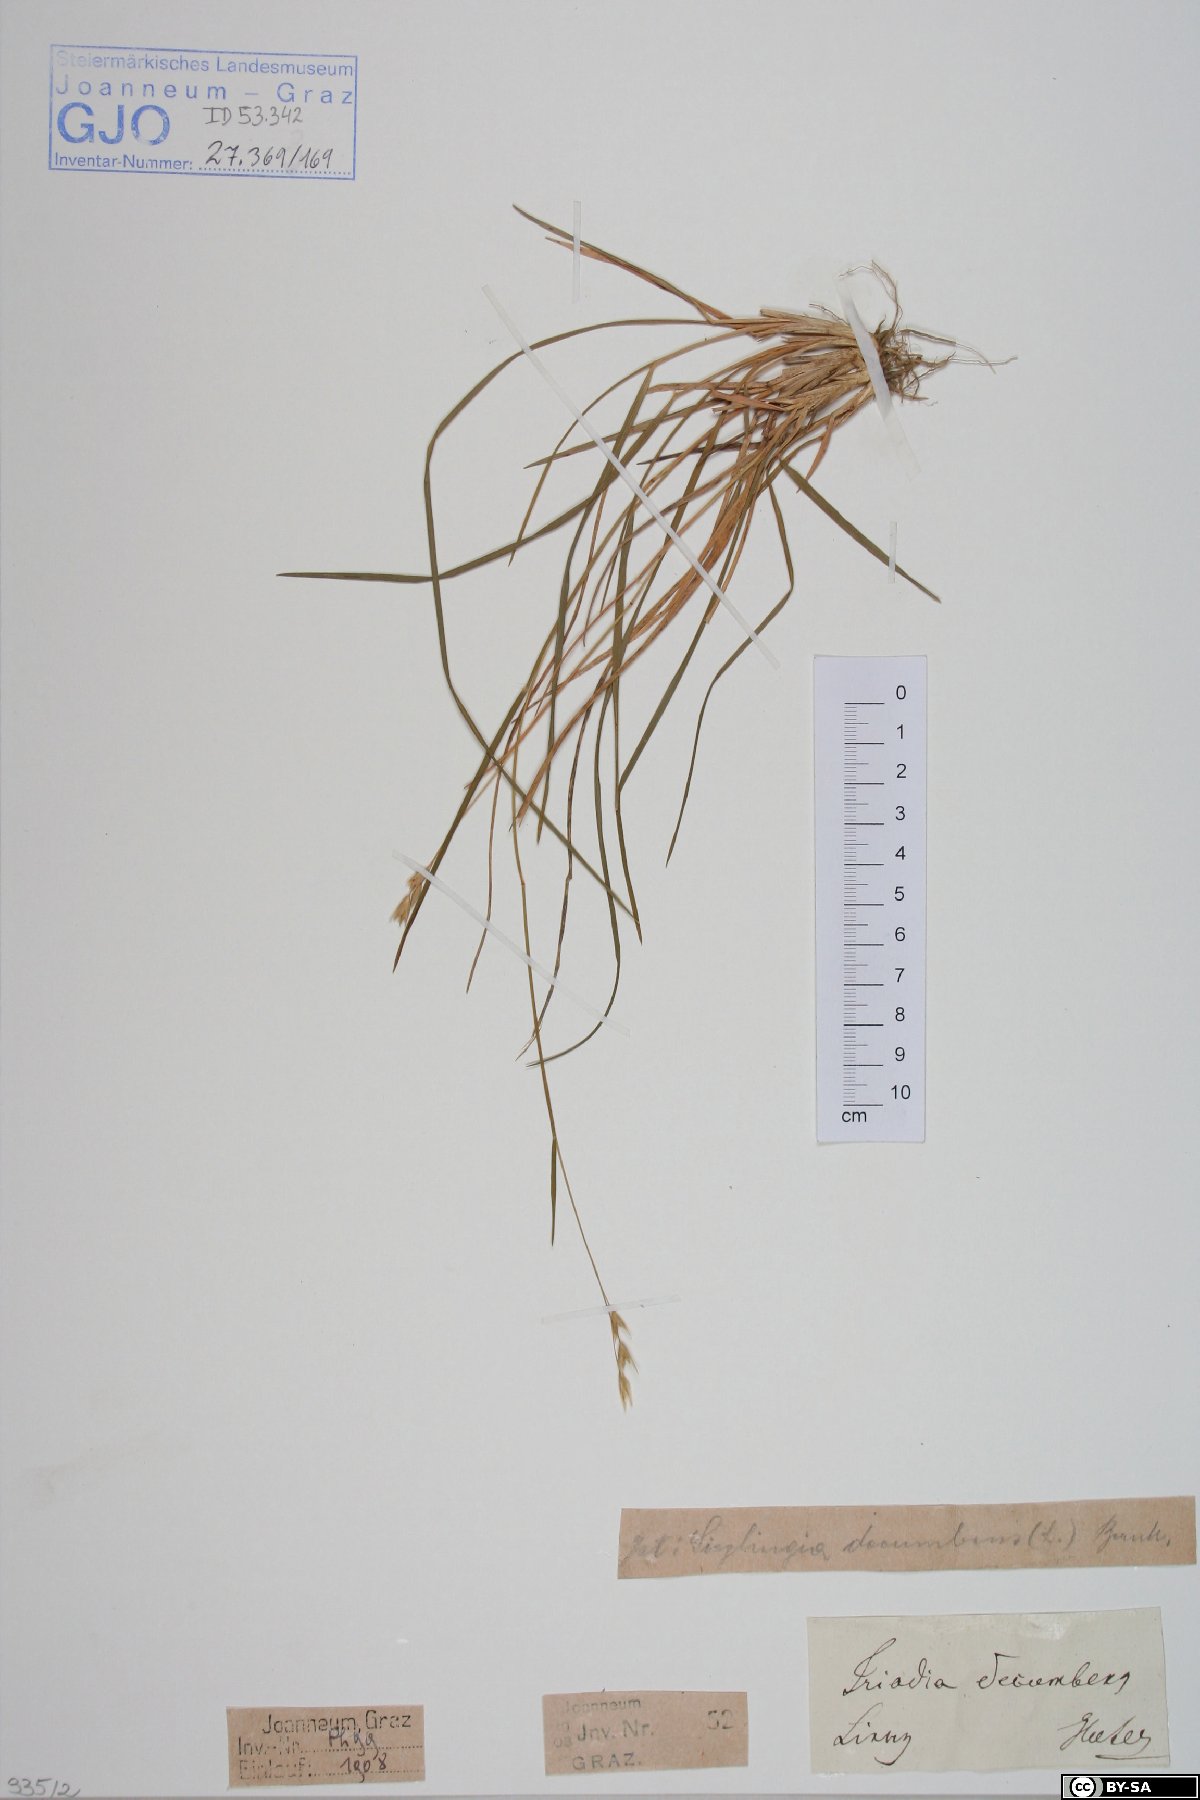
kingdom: Plantae
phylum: Tracheophyta
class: Liliopsida
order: Poales
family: Poaceae
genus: Danthonia
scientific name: Danthonia decumbens
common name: Common heathgrass
